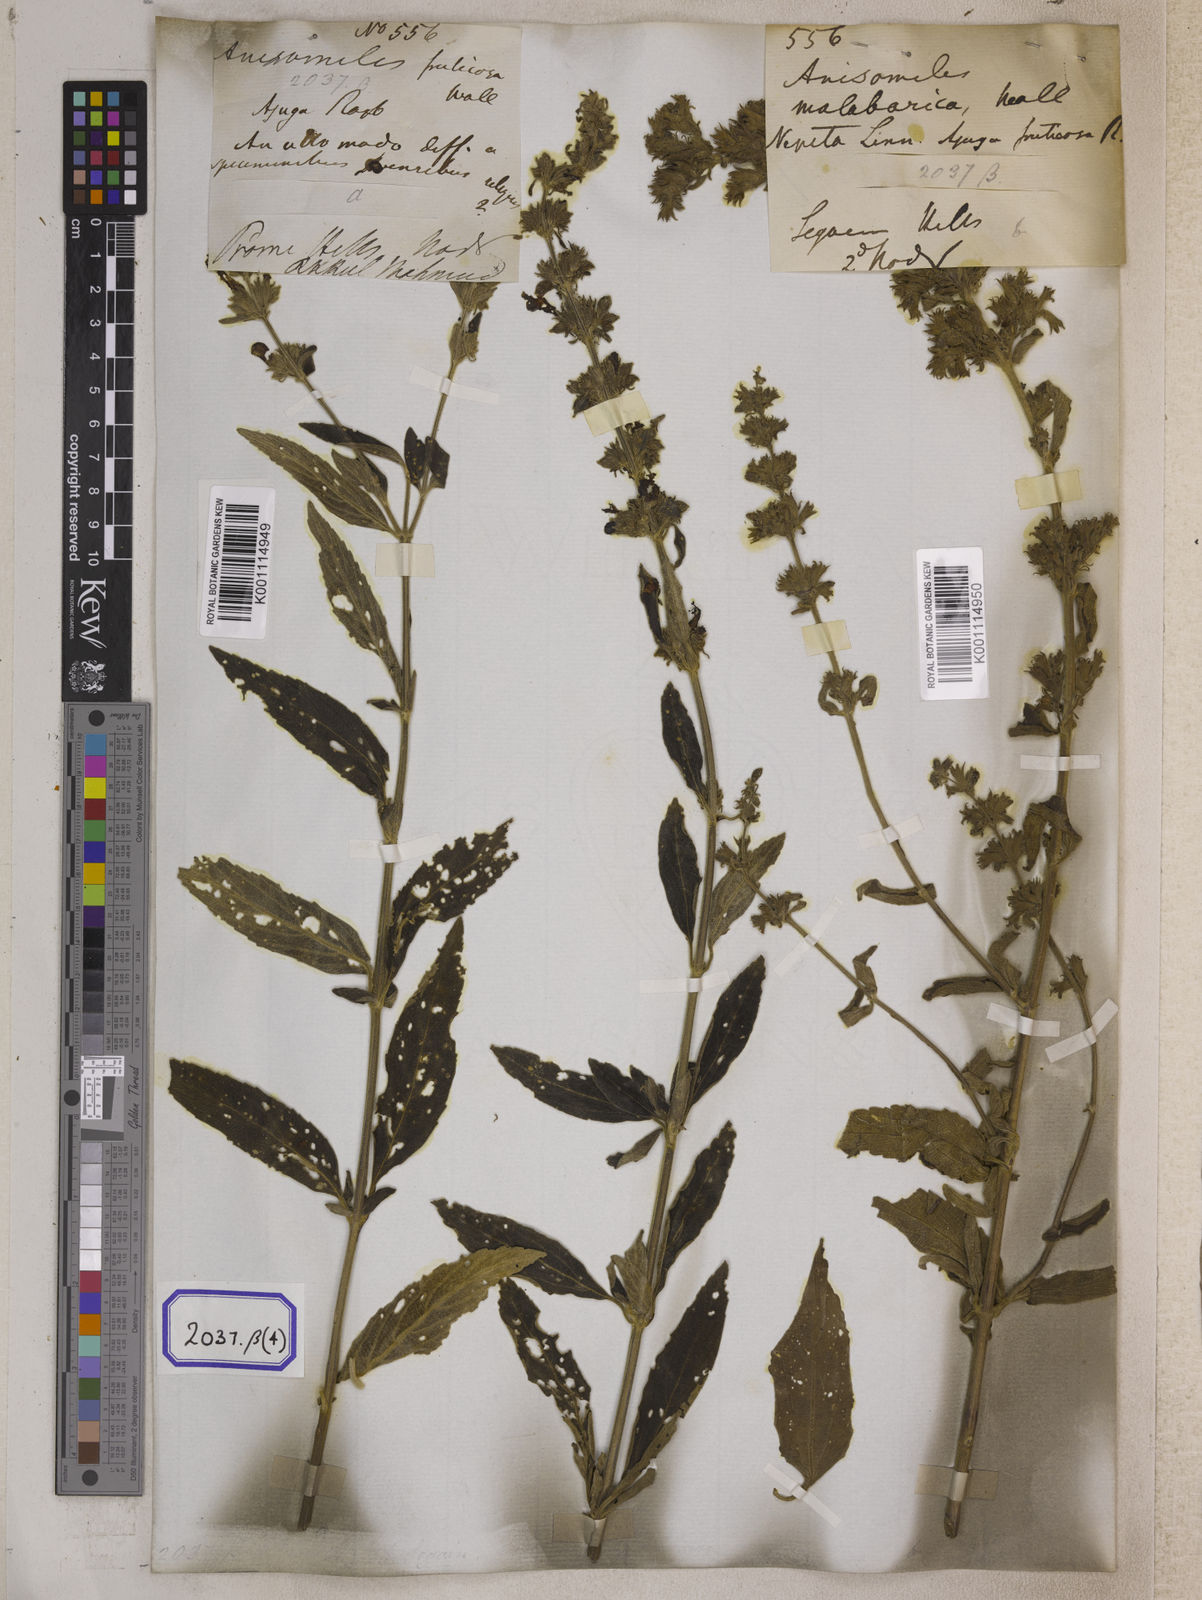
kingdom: Plantae
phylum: Tracheophyta
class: Magnoliopsida
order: Lamiales
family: Lamiaceae
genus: Anisomeles
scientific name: Anisomeles
